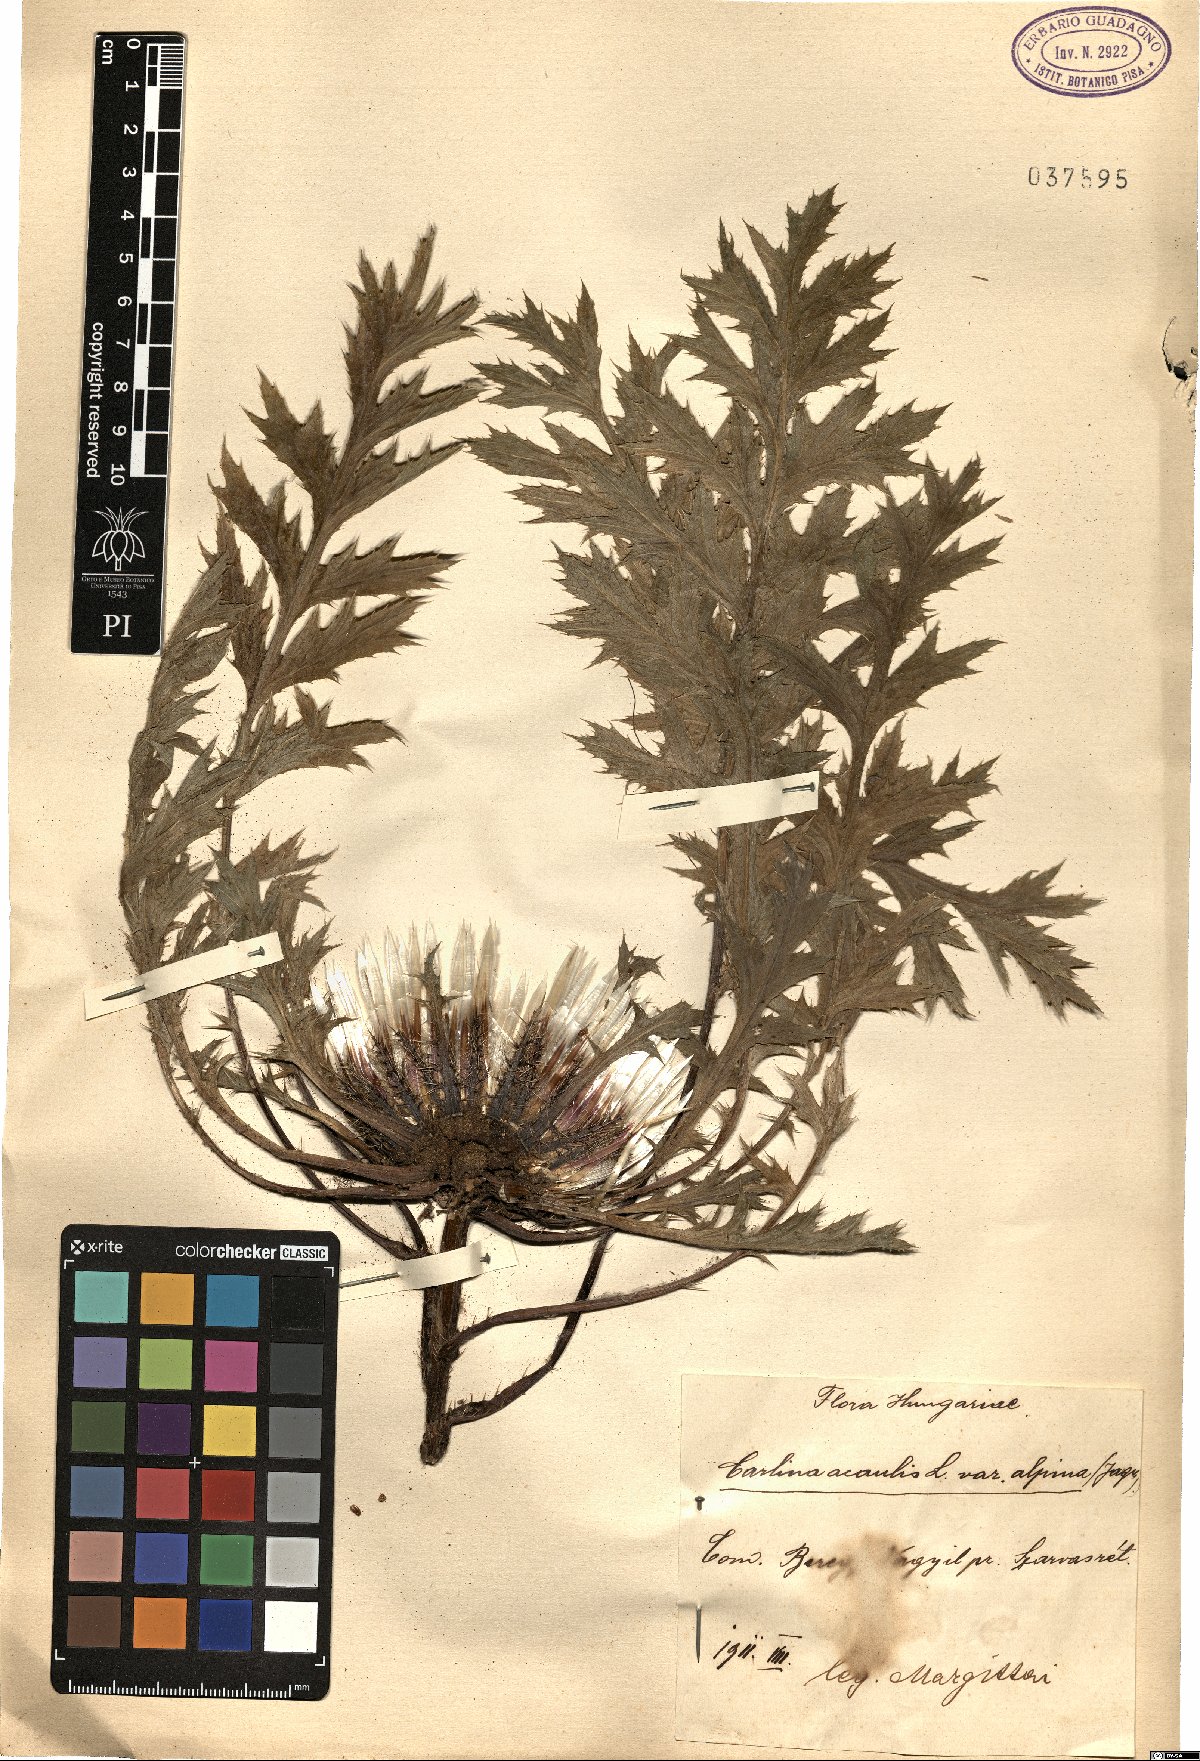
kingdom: Plantae
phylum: Tracheophyta
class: Magnoliopsida
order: Asterales
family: Asteraceae
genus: Carlina
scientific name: Carlina acaulis
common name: Stemless carline thistle
